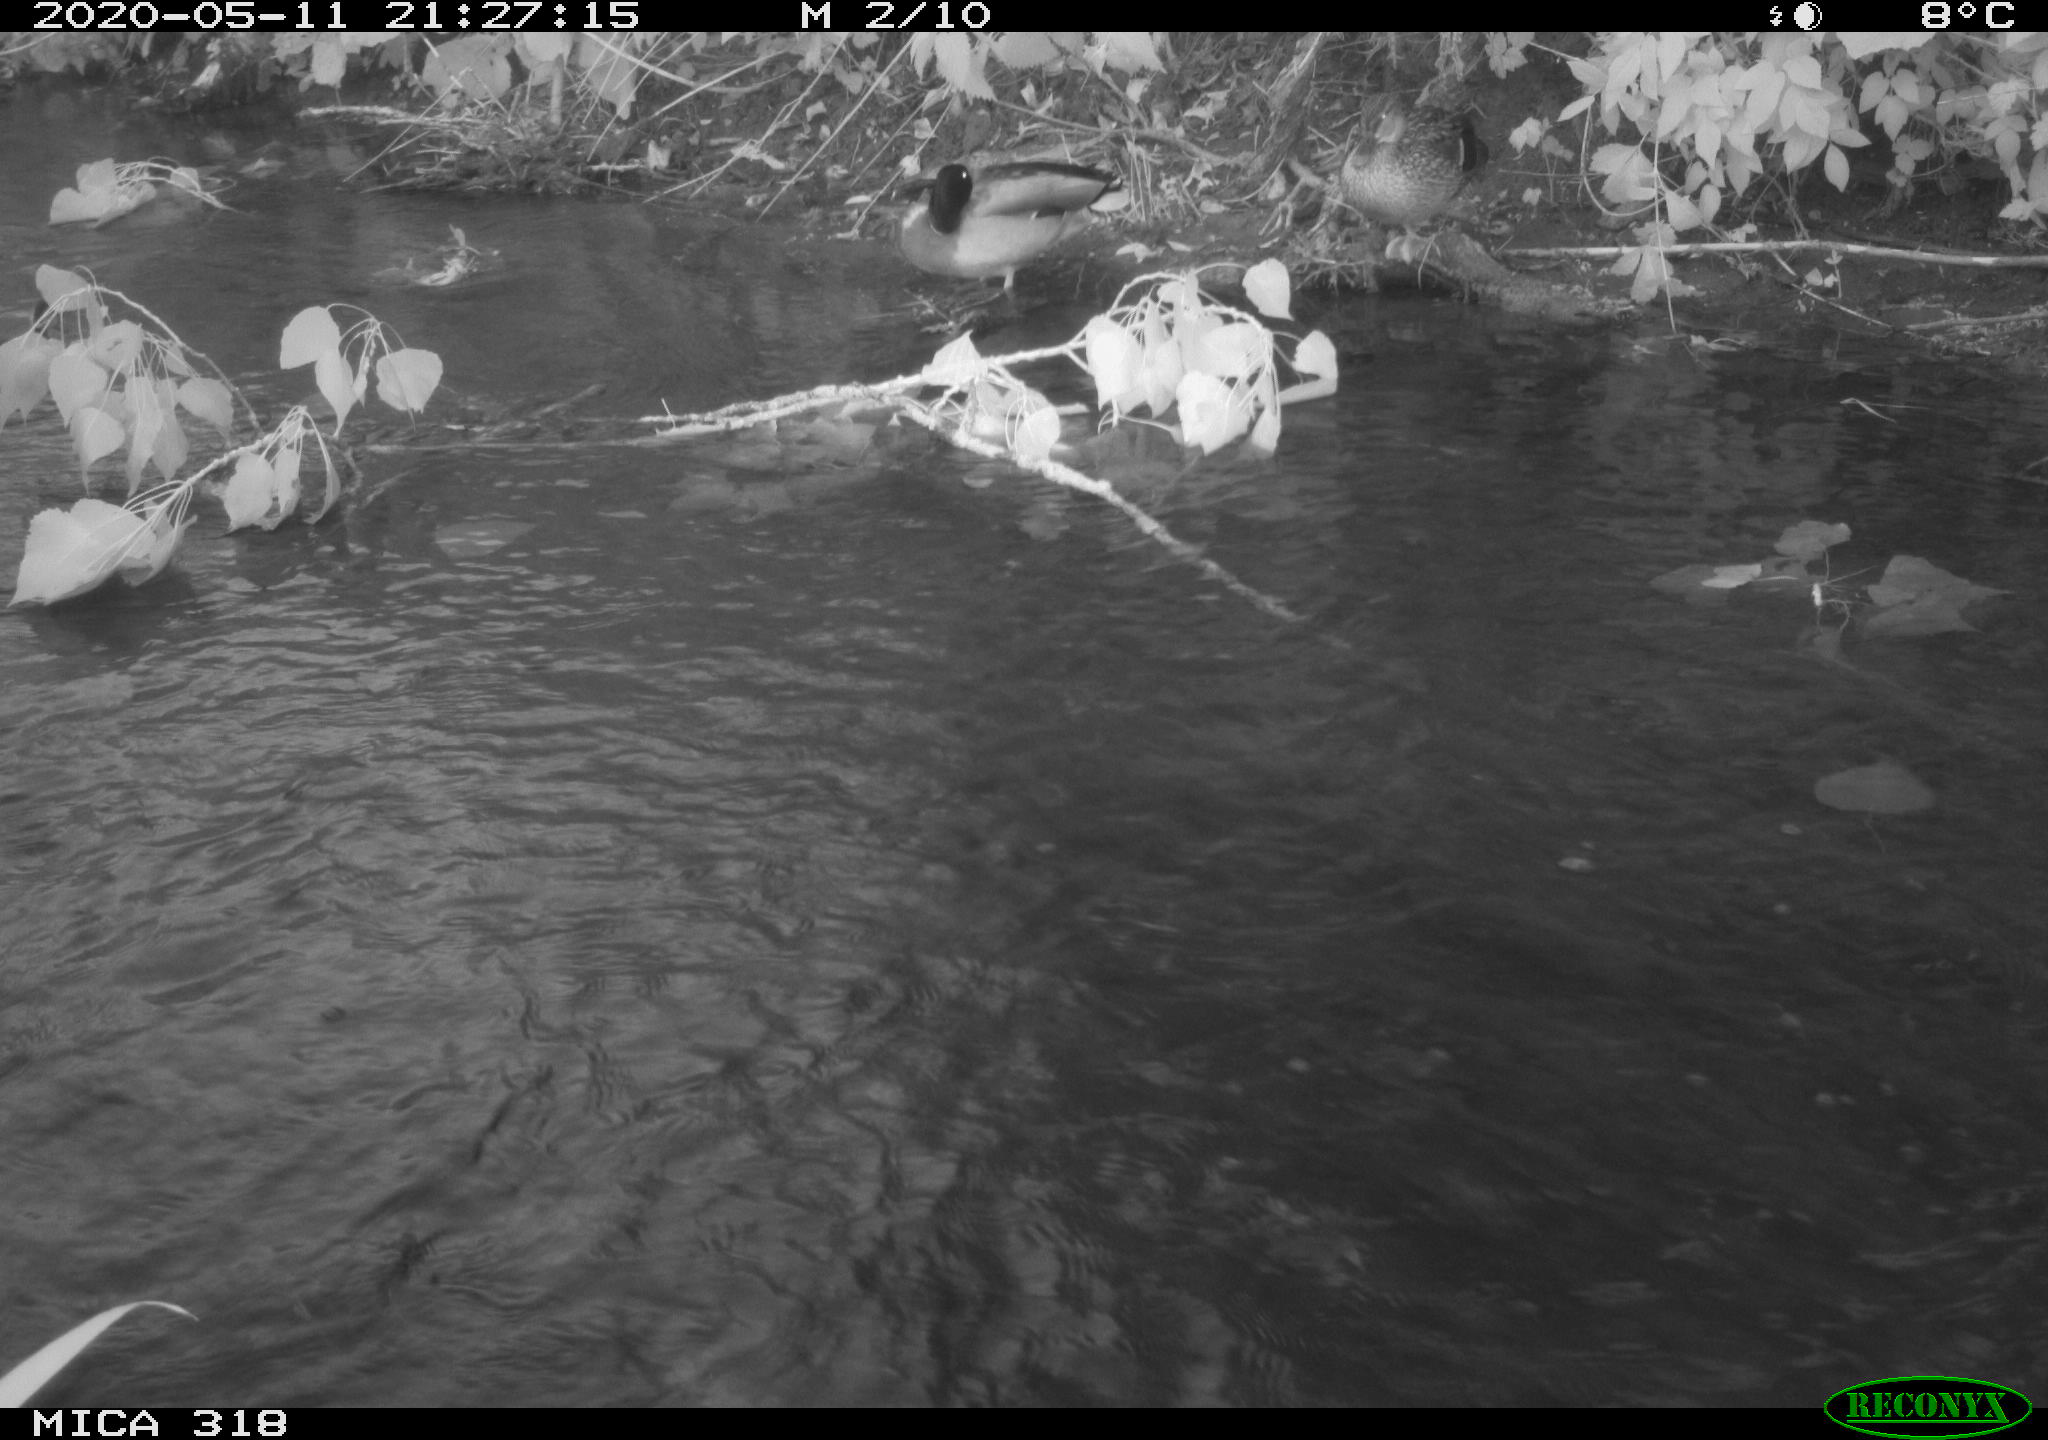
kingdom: Animalia
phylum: Chordata
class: Aves
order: Anseriformes
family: Anatidae
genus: Anas
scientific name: Anas platyrhynchos
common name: Mallard
